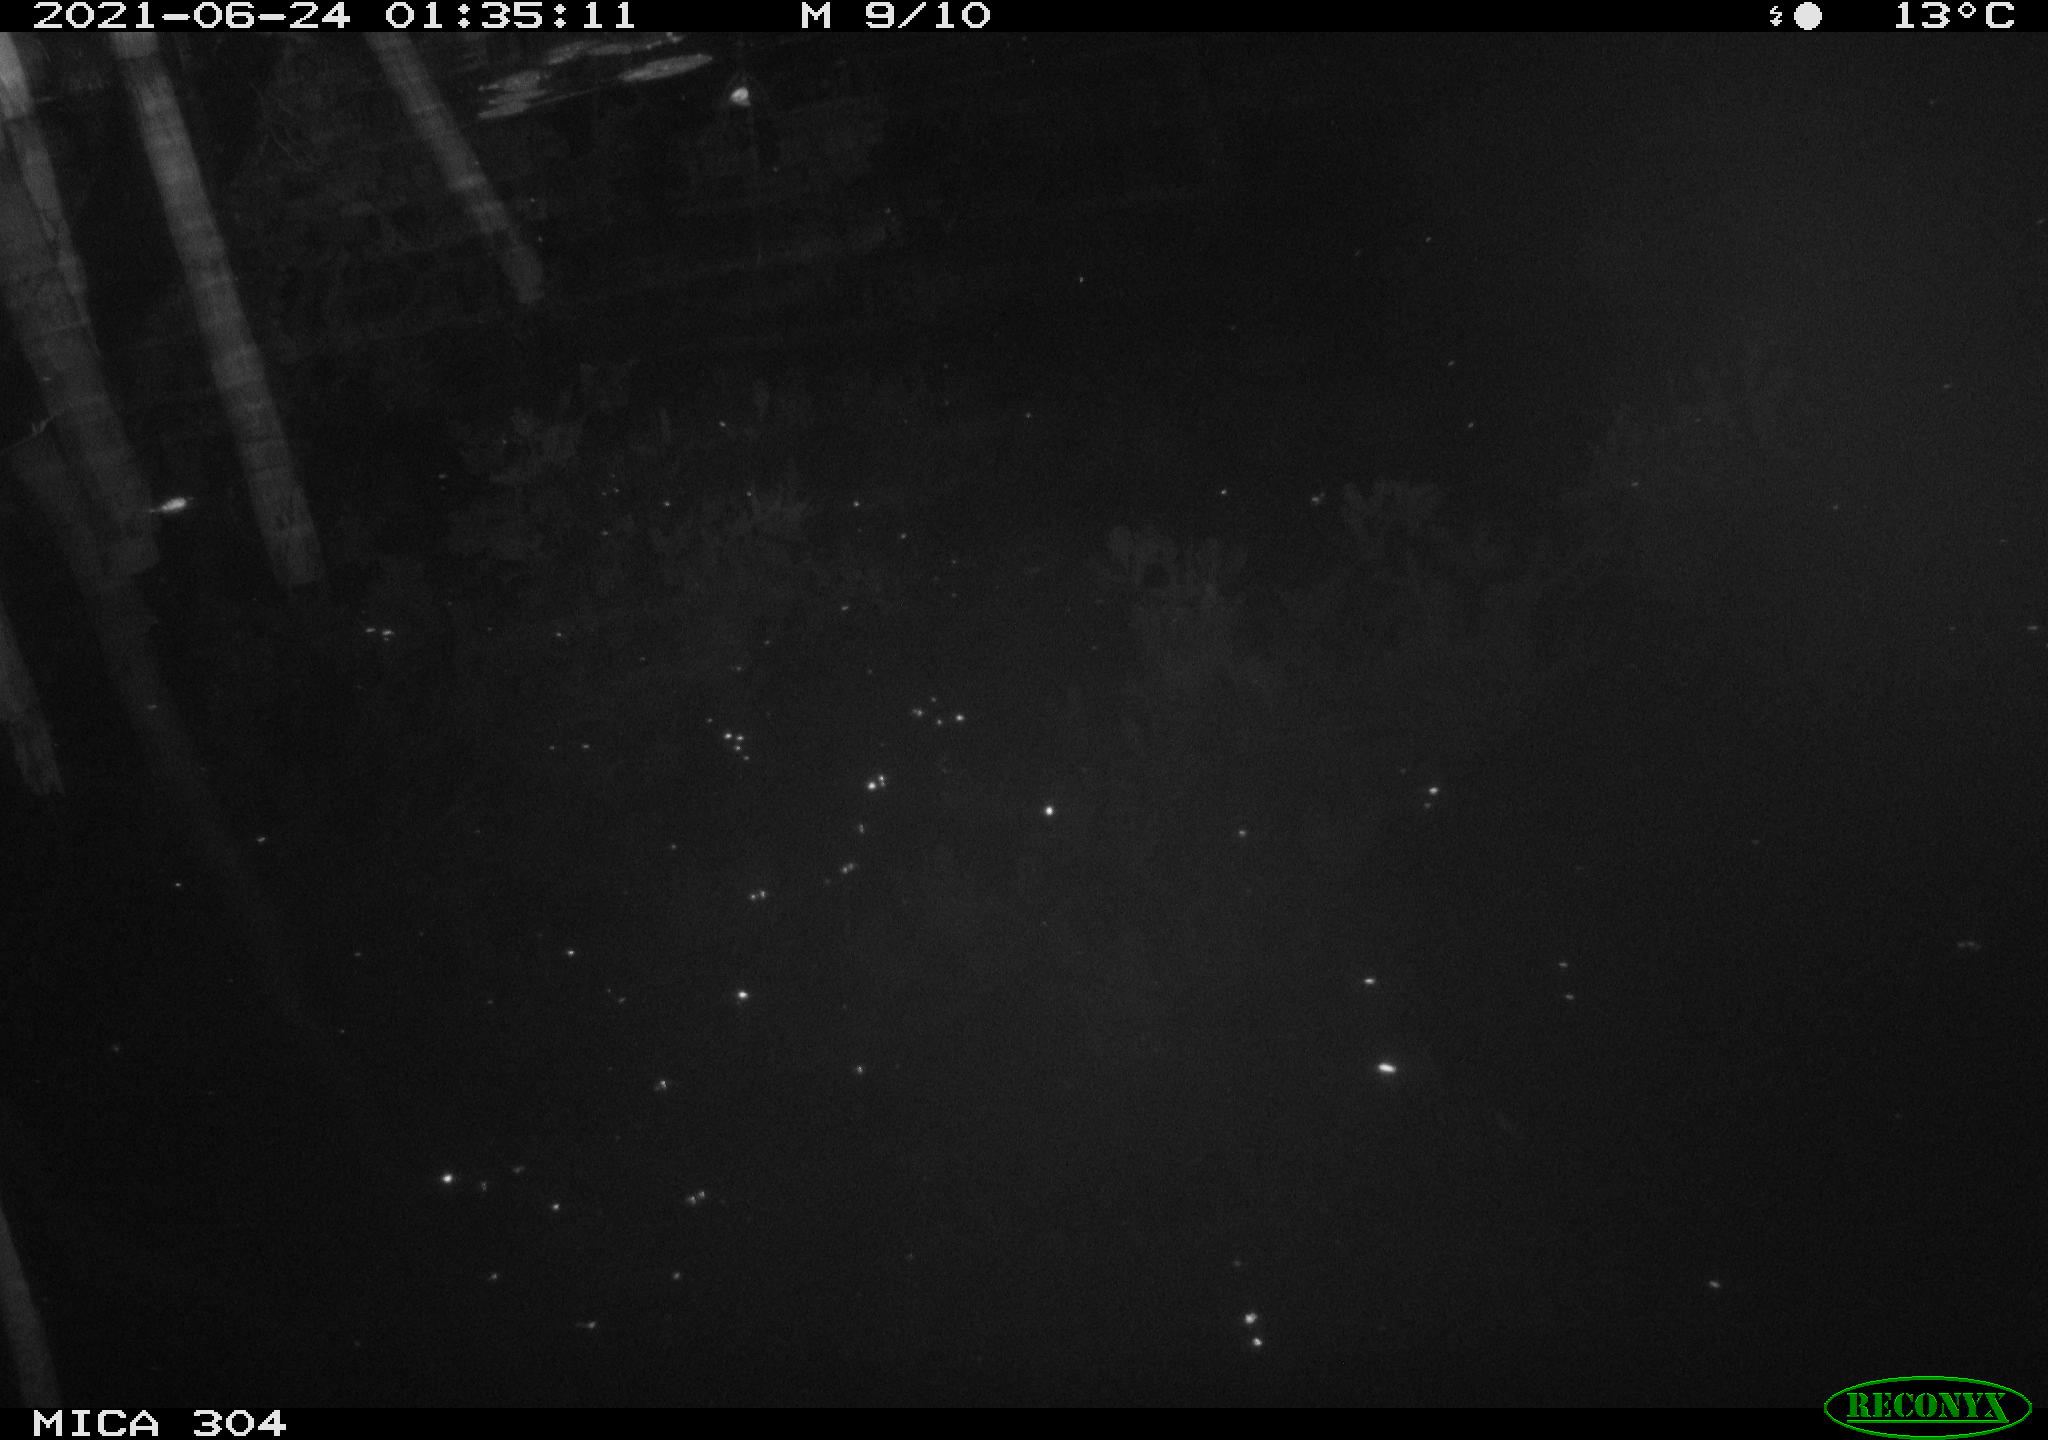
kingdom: Animalia
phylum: Chordata
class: Aves
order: Anseriformes
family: Anatidae
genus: Anas
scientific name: Anas platyrhynchos
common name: Mallard
